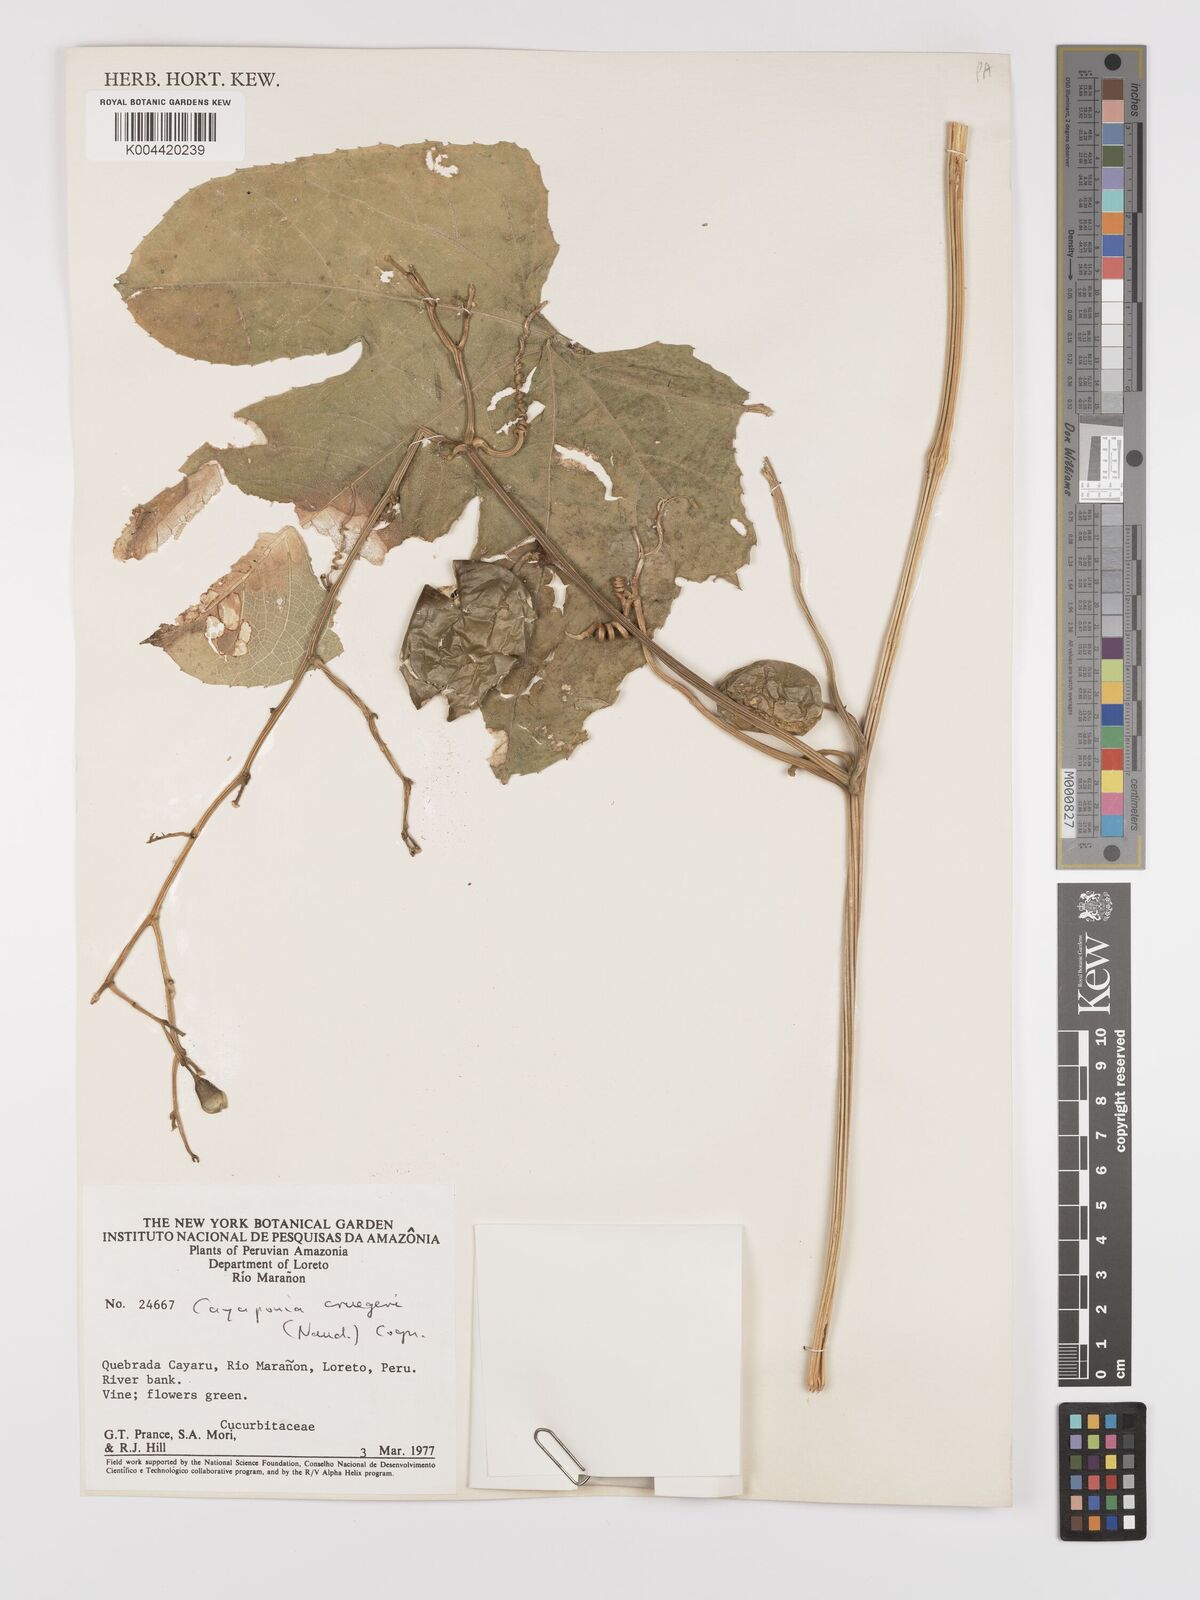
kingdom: Plantae
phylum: Tracheophyta
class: Magnoliopsida
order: Cucurbitales
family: Cucurbitaceae
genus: Cayaponia
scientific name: Cayaponia cruegeri
